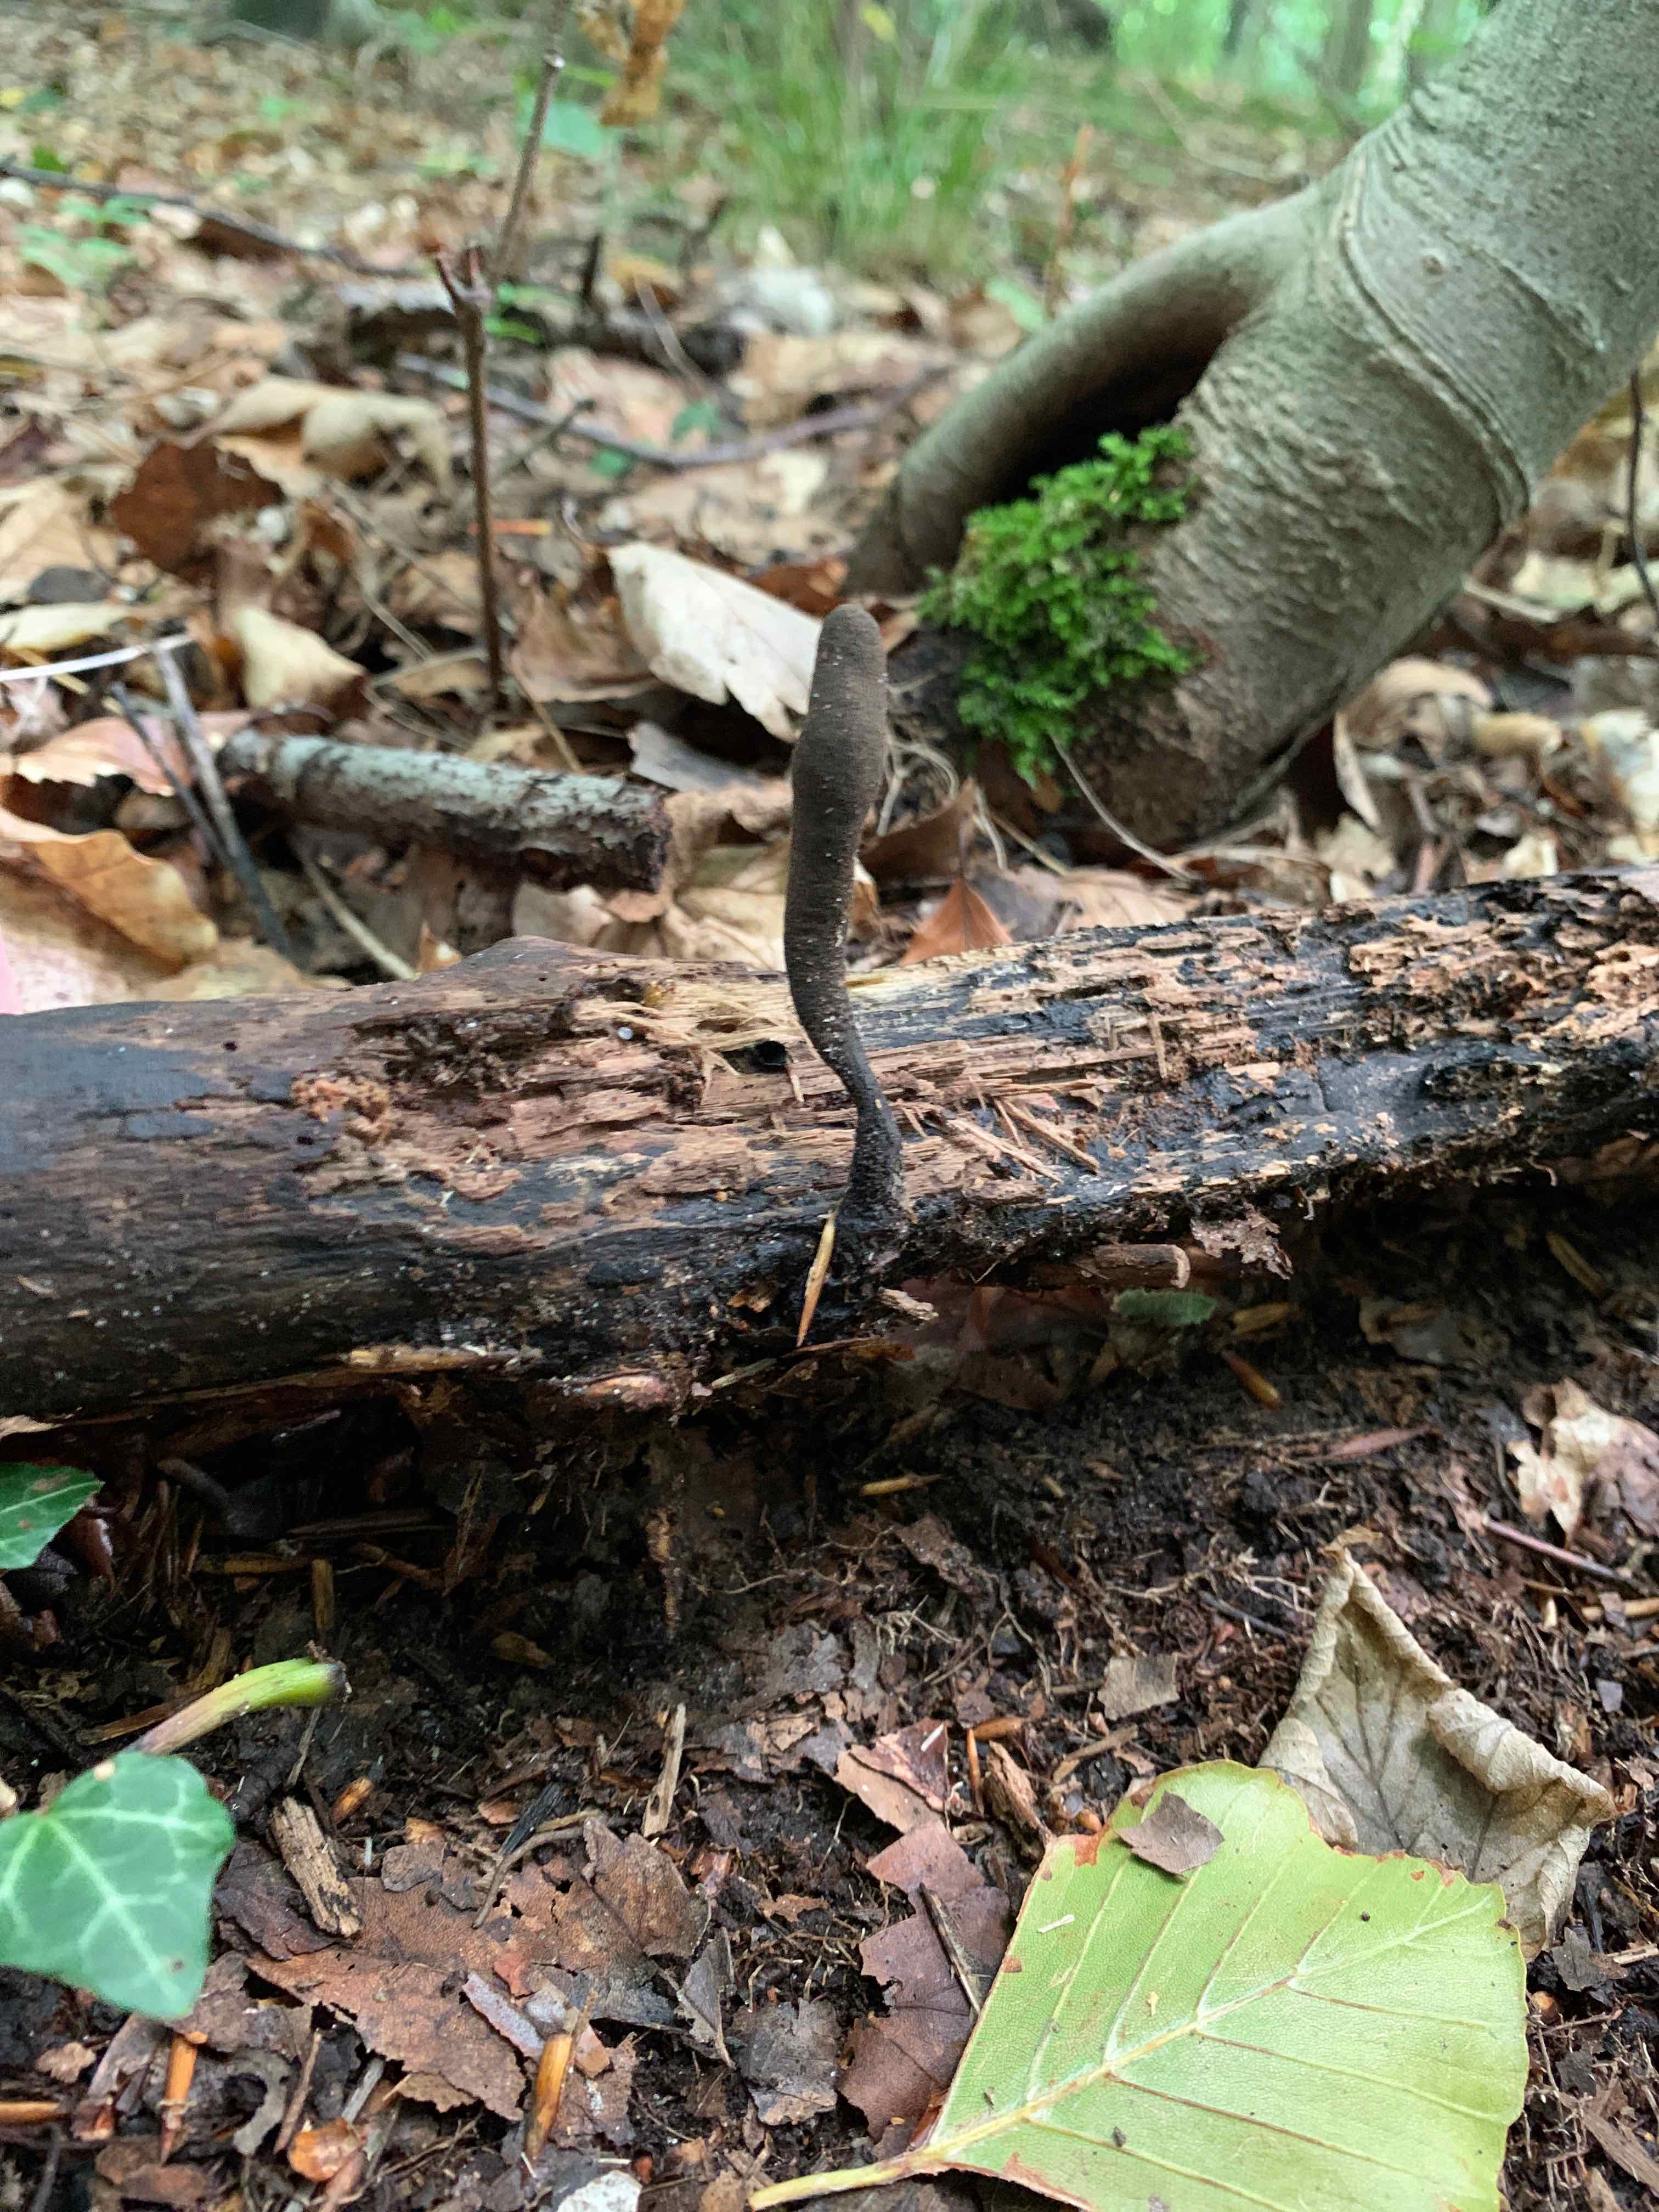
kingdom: Fungi
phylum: Ascomycota
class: Sordariomycetes
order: Xylariales
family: Xylariaceae
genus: Xylaria
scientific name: Xylaria longipes
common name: slank stødsvamp
